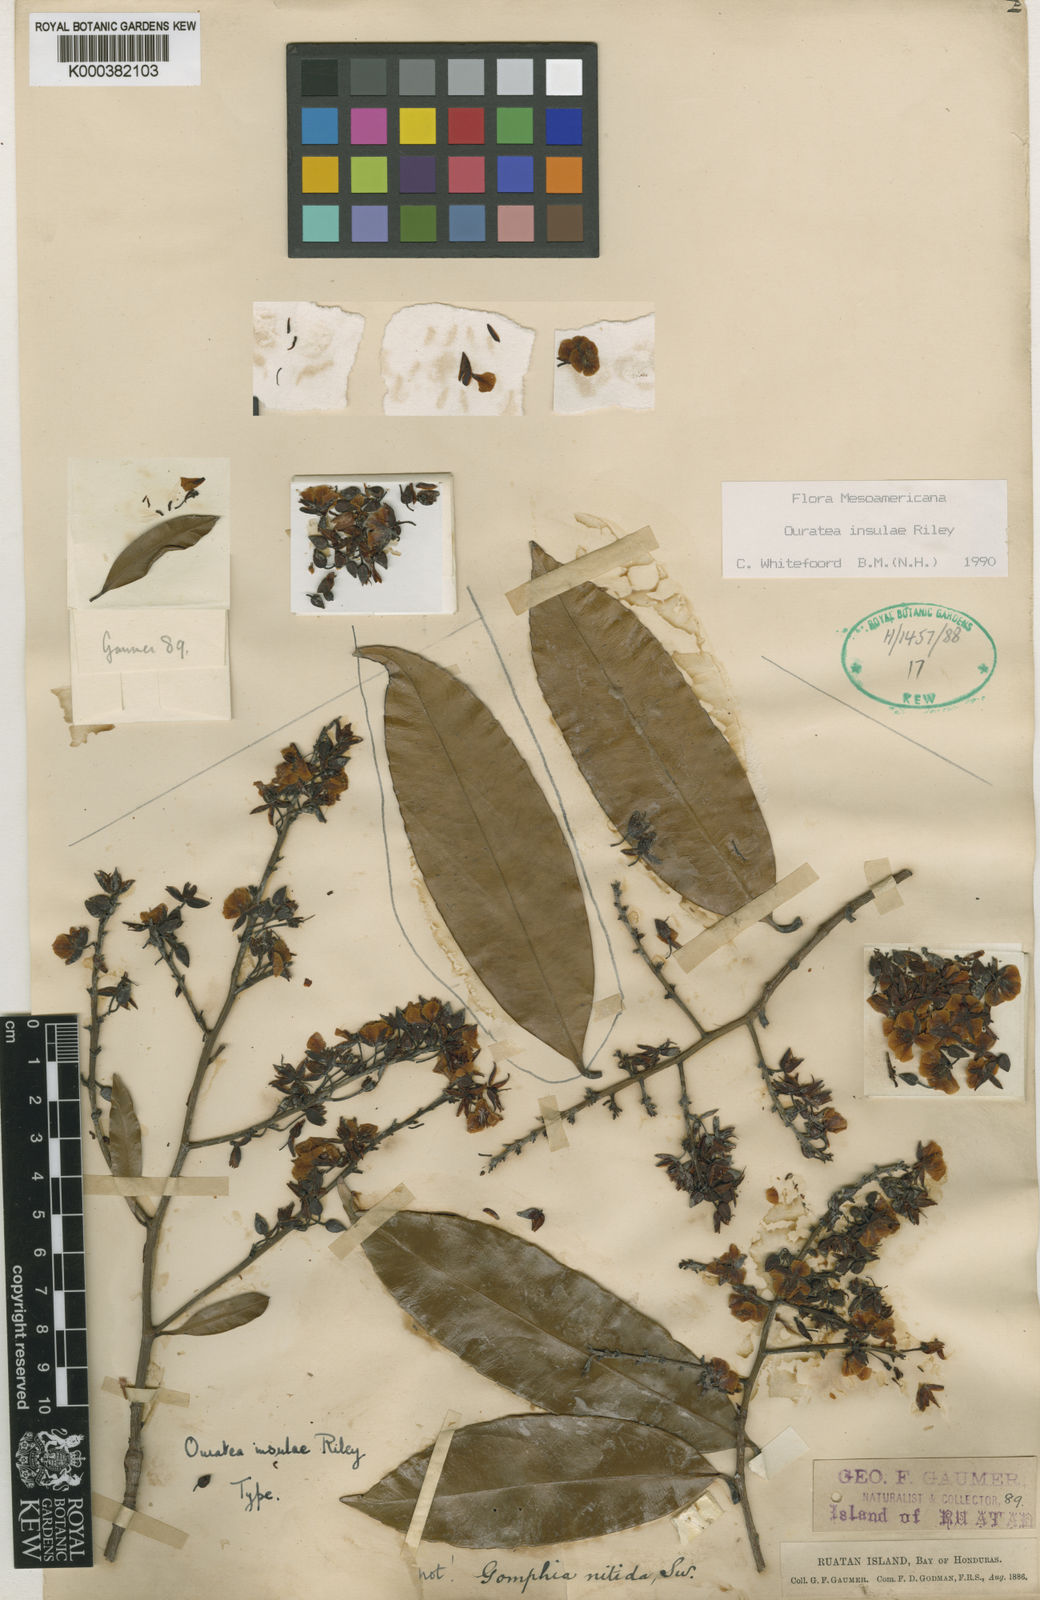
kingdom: Plantae
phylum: Tracheophyta
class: Magnoliopsida
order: Malpighiales
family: Ochnaceae
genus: Ouratea
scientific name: Ouratea insulae
